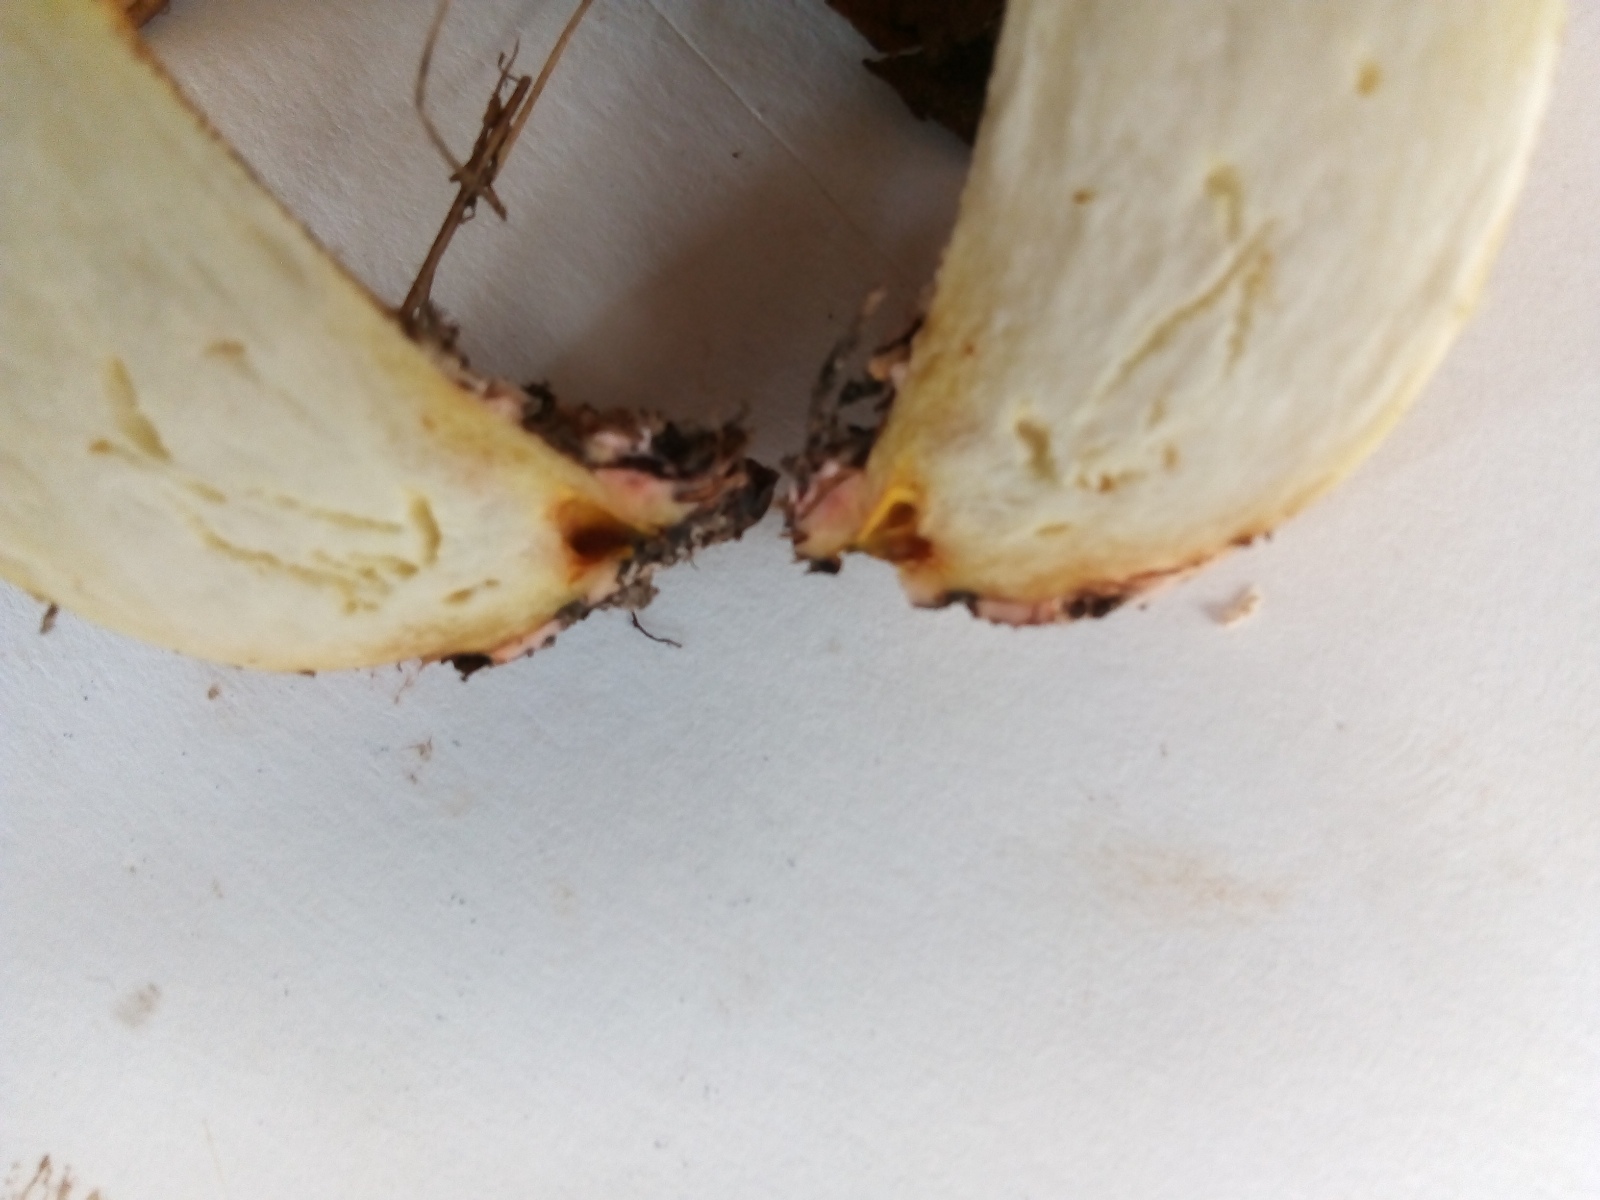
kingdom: Fungi
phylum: Basidiomycota
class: Agaricomycetes
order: Boletales
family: Suillaceae
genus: Suillus
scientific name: Suillus collinitus
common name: rosafodet slimrørhat
